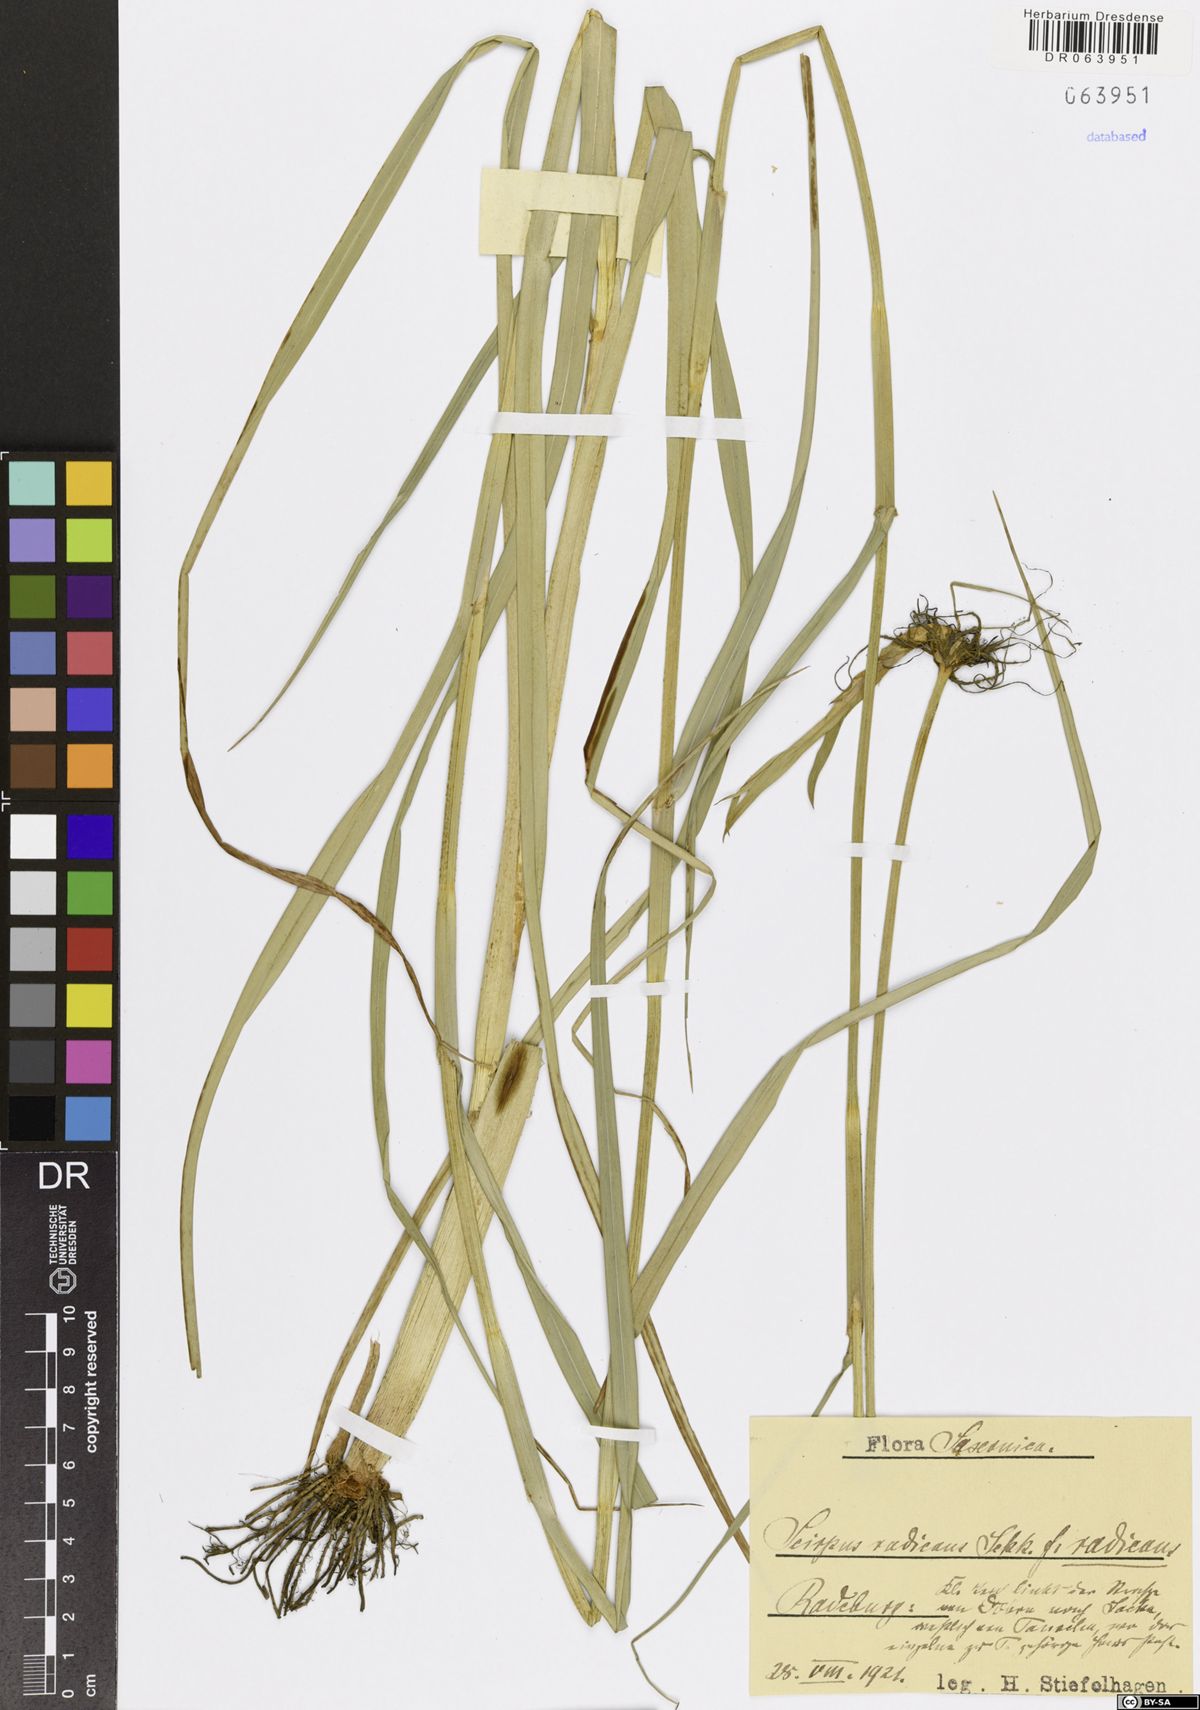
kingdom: Plantae
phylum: Tracheophyta
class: Liliopsida
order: Poales
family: Cyperaceae
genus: Scirpus
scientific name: Scirpus radicans
